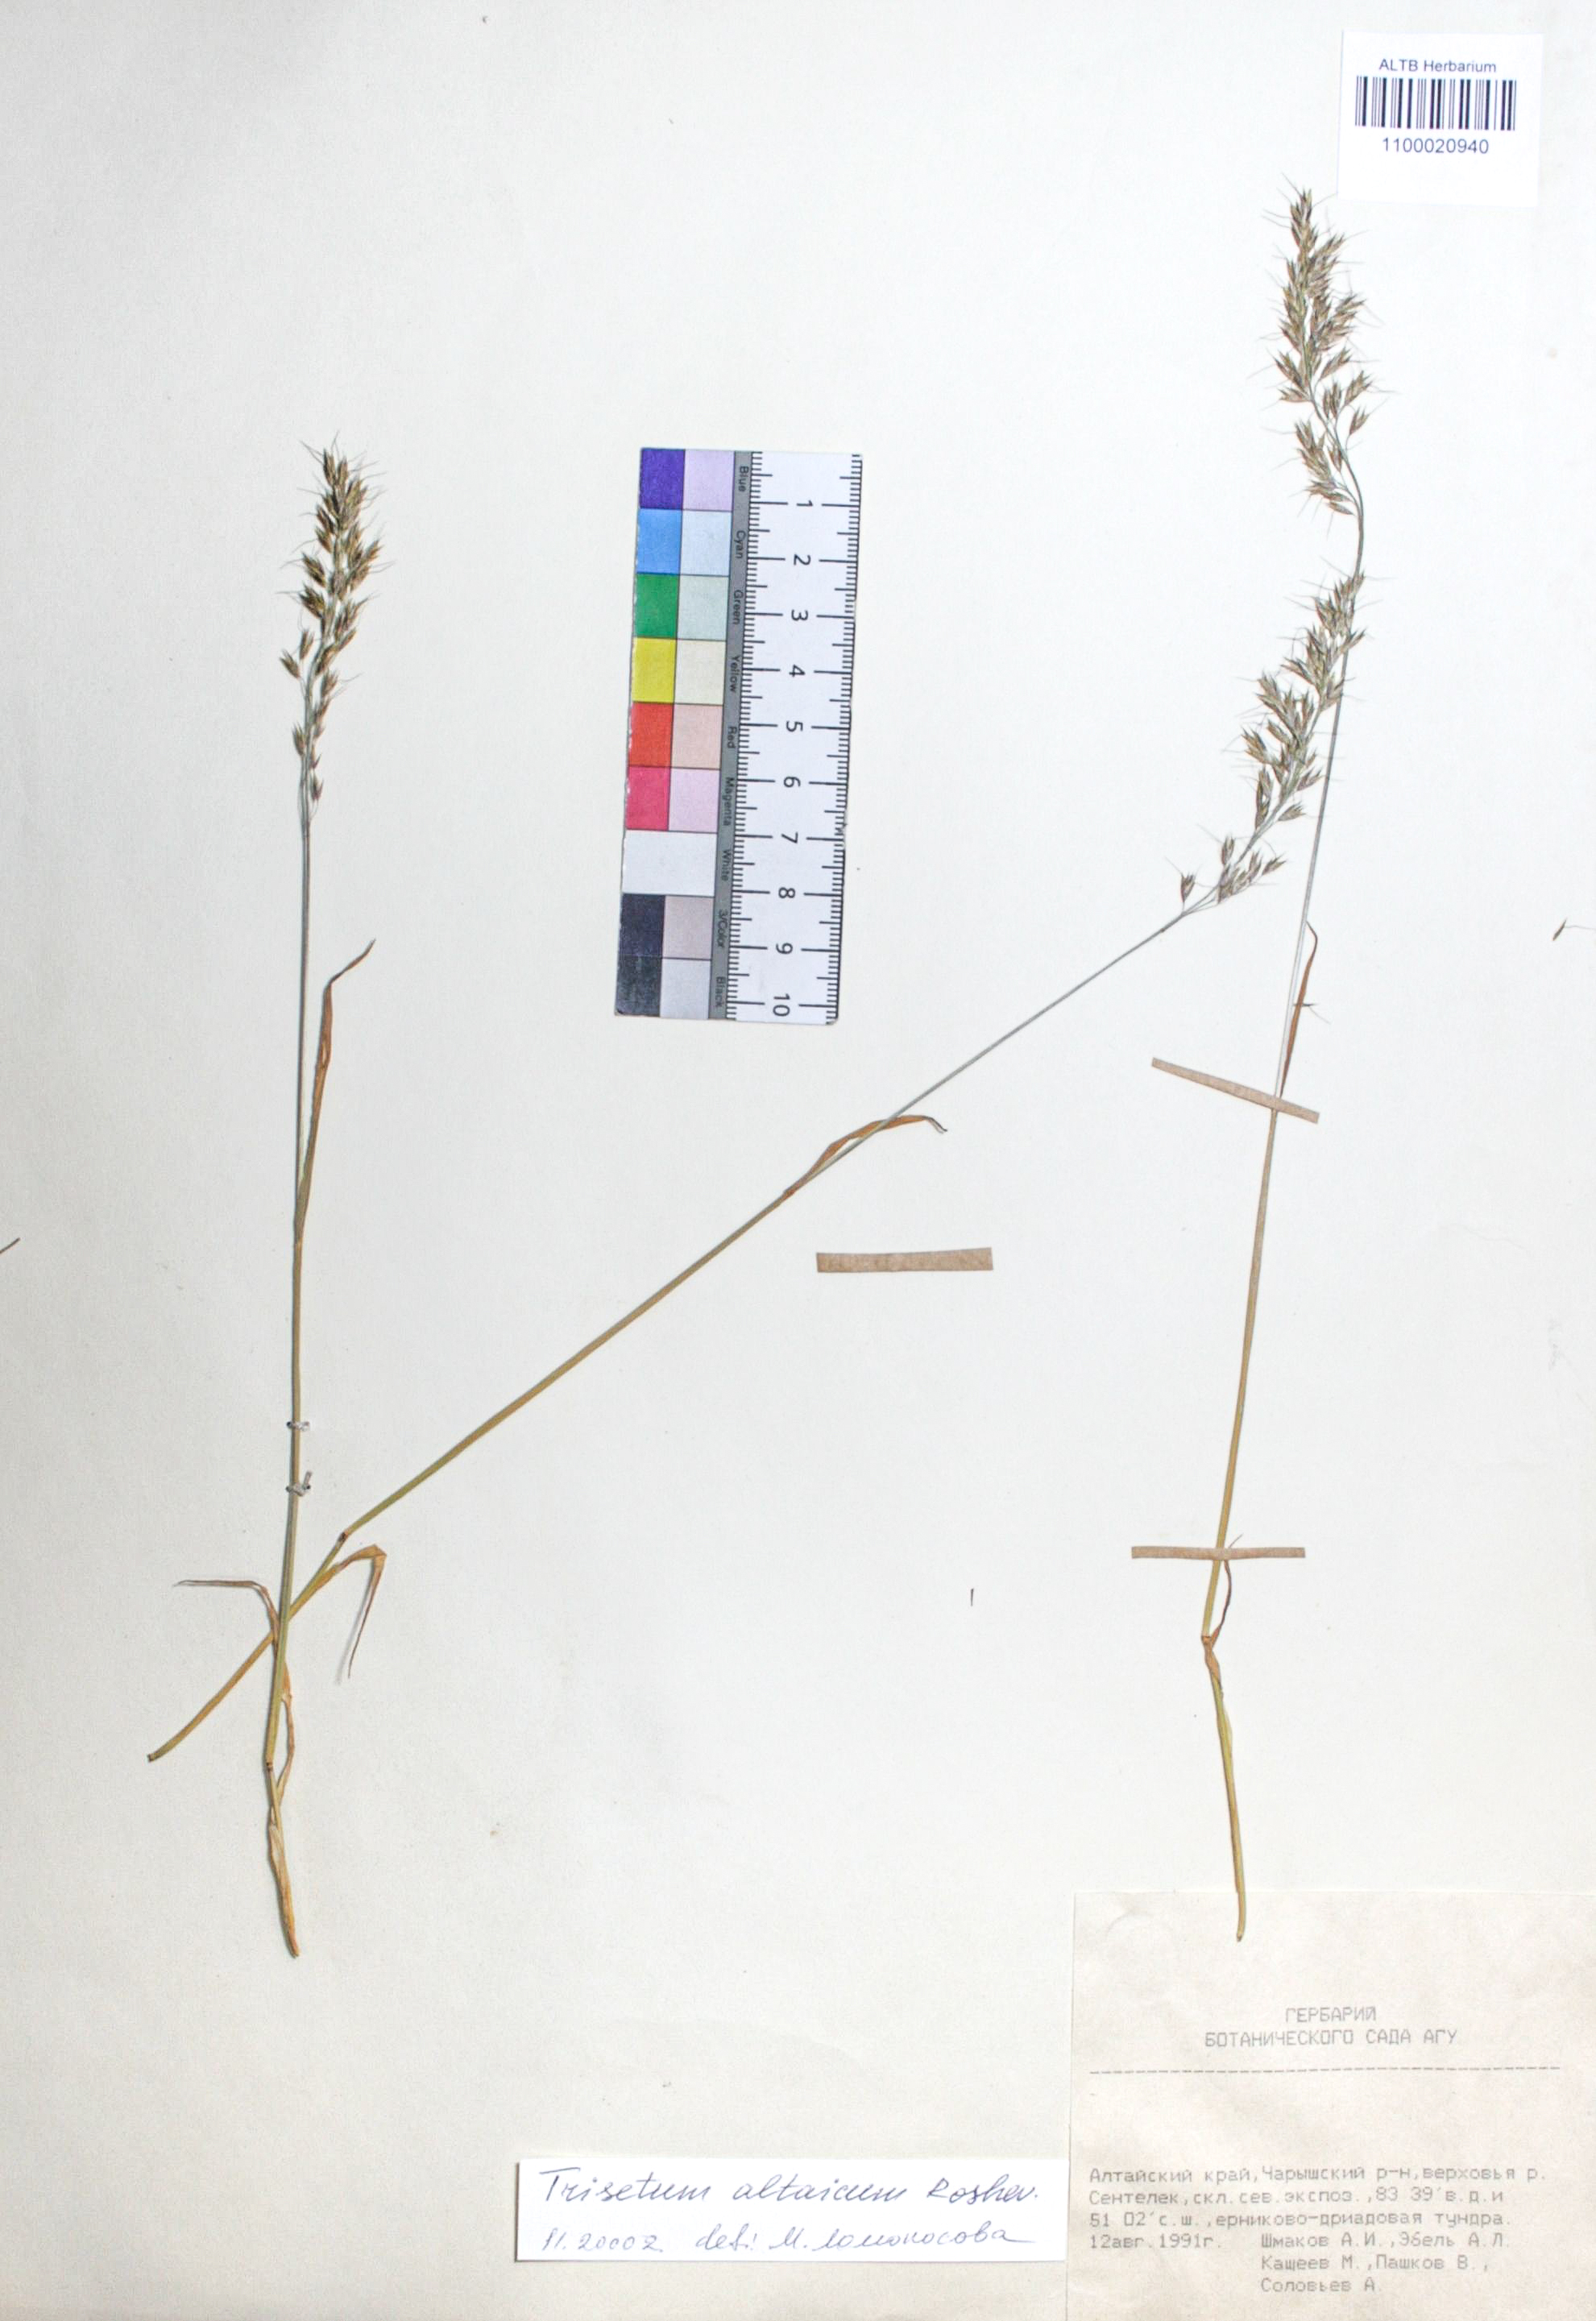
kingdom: Plantae
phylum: Tracheophyta
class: Liliopsida
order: Poales
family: Poaceae
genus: Trisetum
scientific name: Trisetum altaicum
